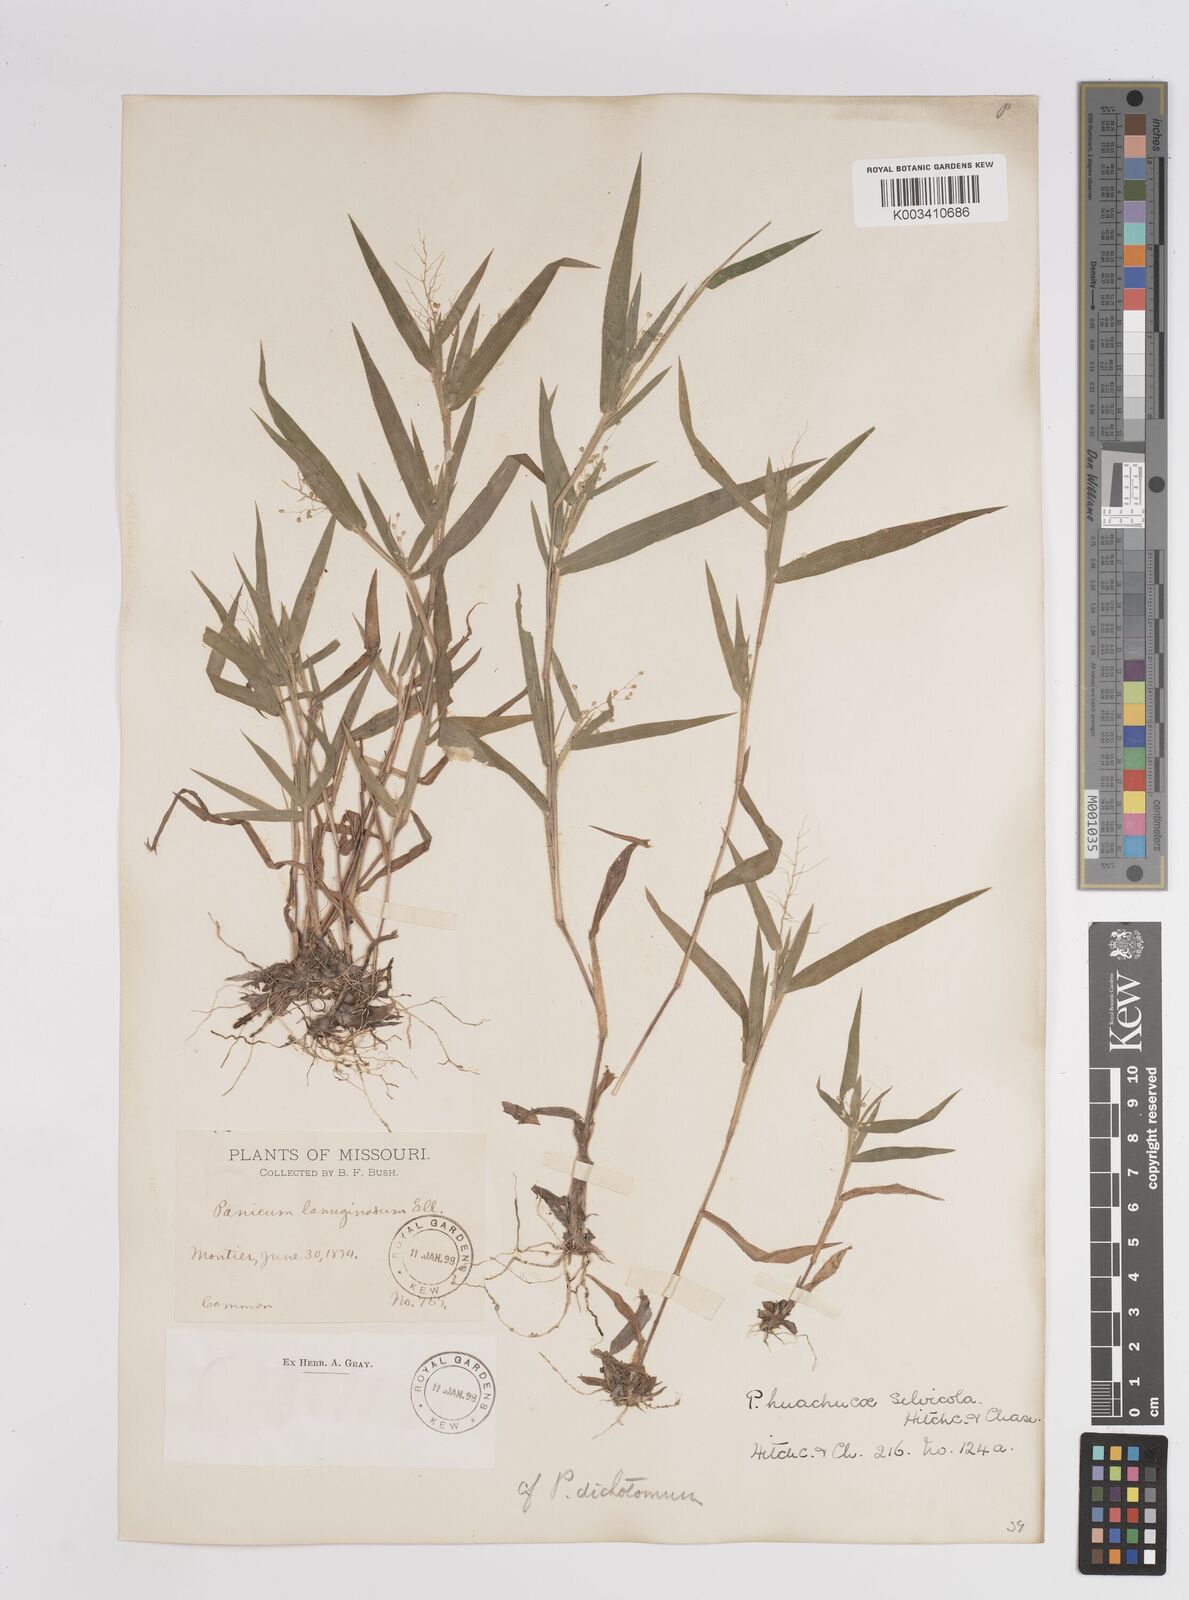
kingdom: Plantae
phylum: Tracheophyta
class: Liliopsida
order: Poales
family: Poaceae
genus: Dichanthelium
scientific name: Dichanthelium lanuginosum
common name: Woolly panicgrass
